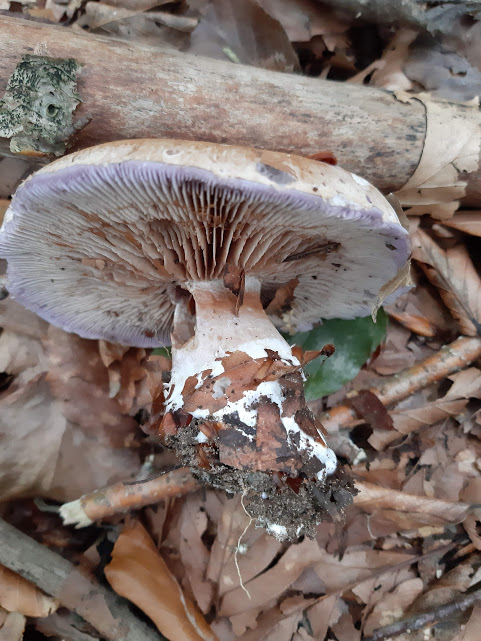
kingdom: Fungi
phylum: Basidiomycota
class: Agaricomycetes
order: Agaricales
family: Cortinariaceae
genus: Cortinarius
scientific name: Cortinarius largus
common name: violetrandet slørhat
